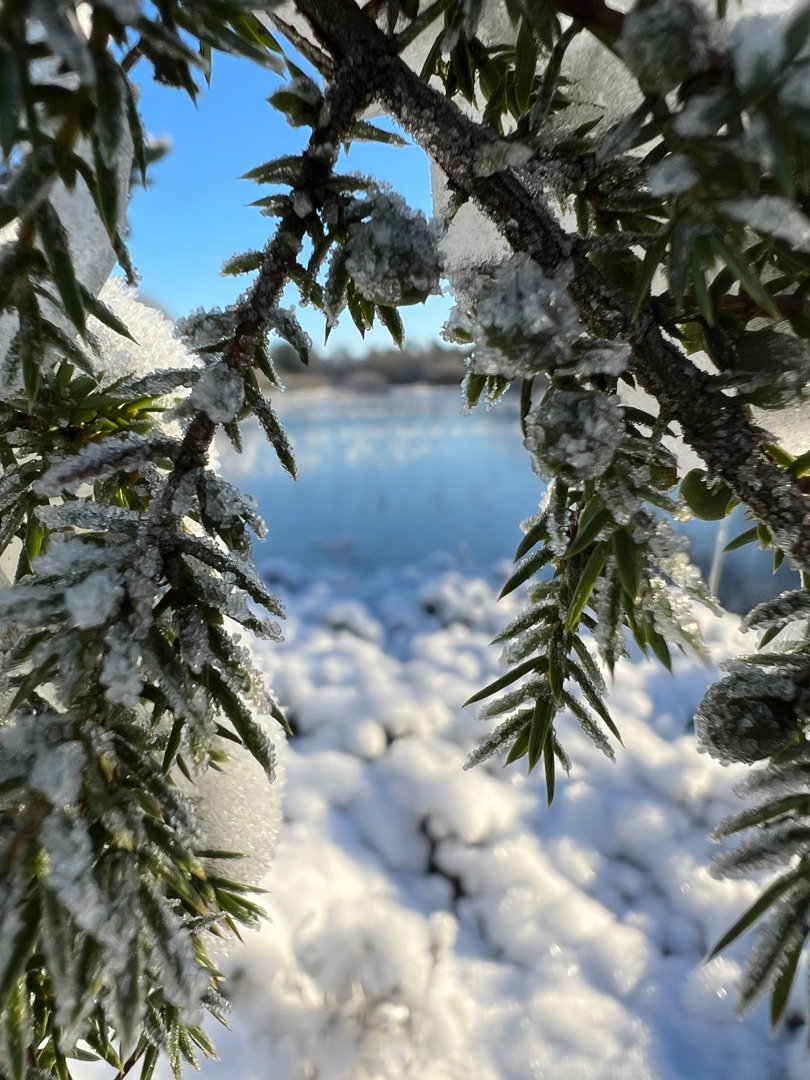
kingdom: Plantae
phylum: Tracheophyta
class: Pinopsida
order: Pinales
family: Cupressaceae
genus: Juniperus
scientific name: Juniperus communis
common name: Almindelig ene
